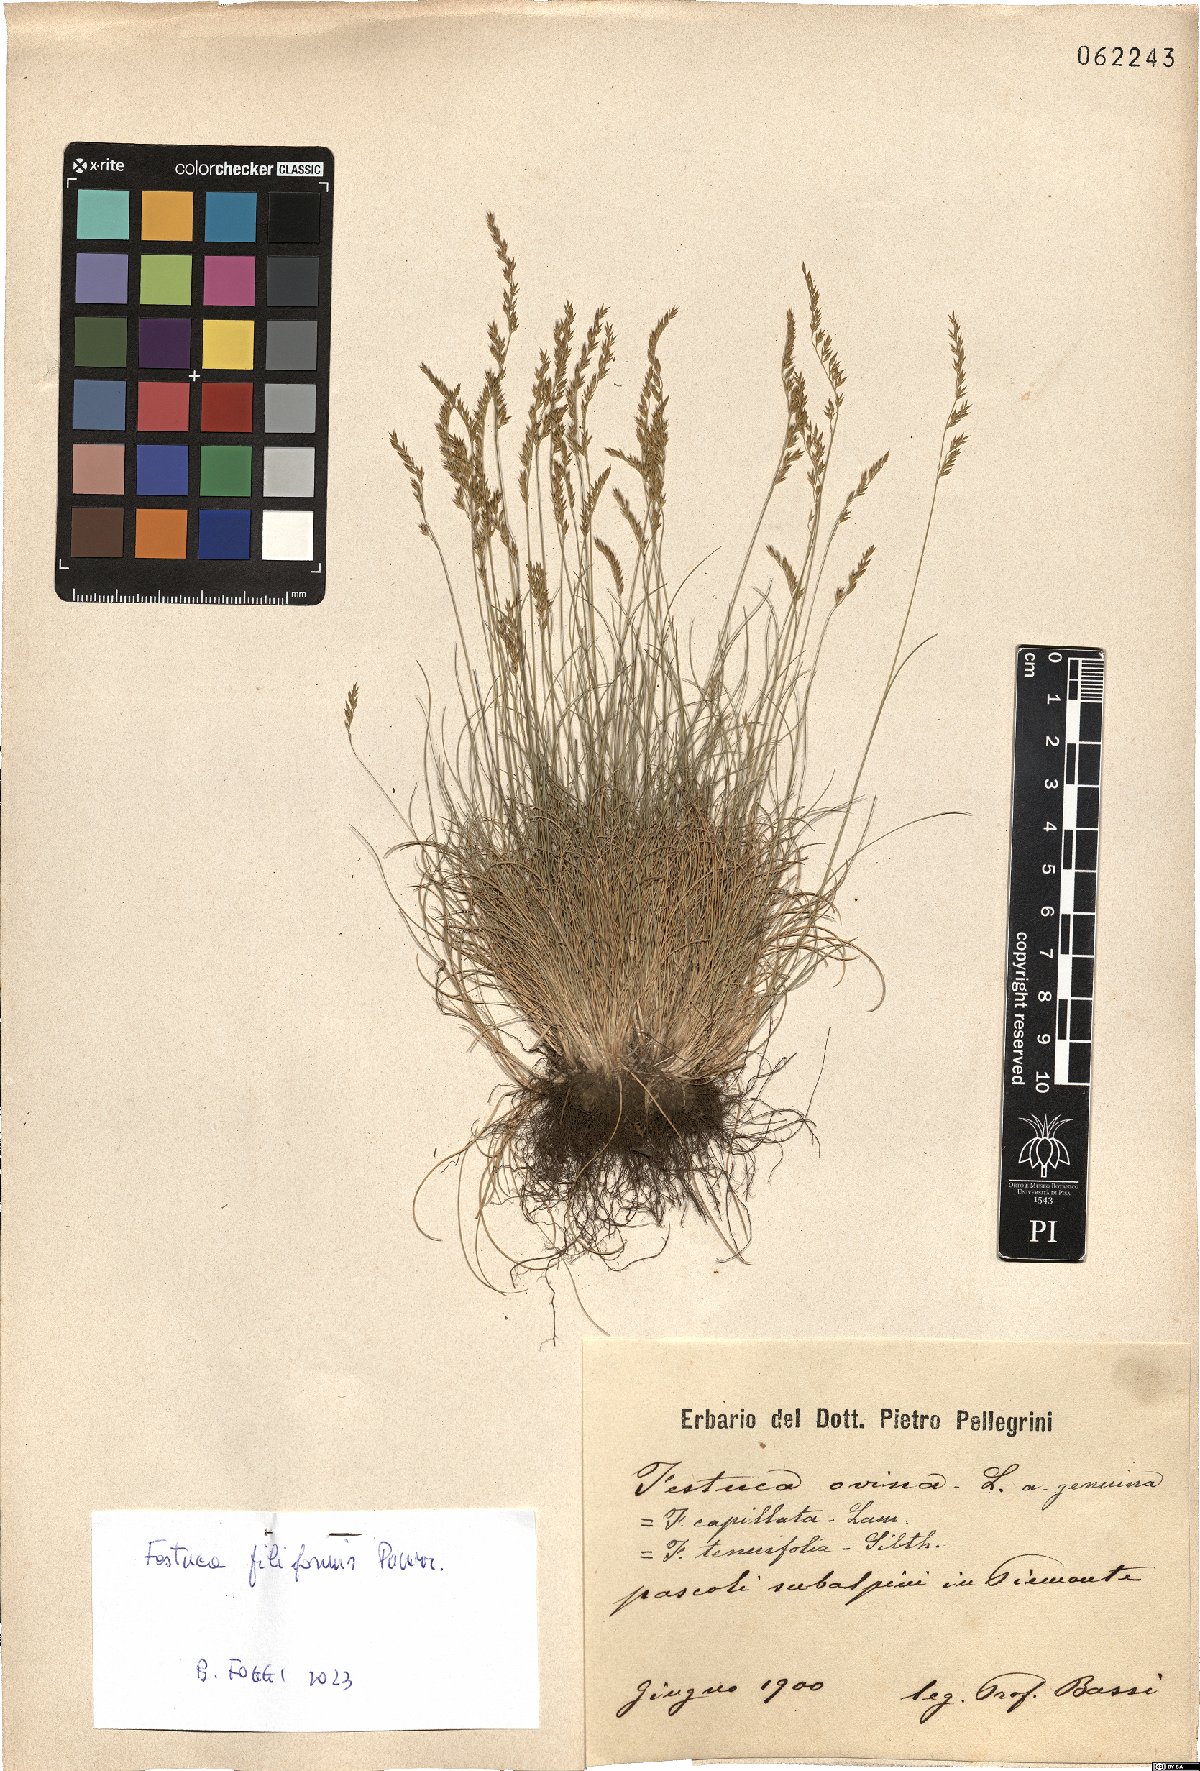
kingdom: Plantae
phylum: Tracheophyta
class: Liliopsida
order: Poales
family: Poaceae
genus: Festuca
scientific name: Festuca filiformis
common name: Fine-leaved sheep's-fescue
